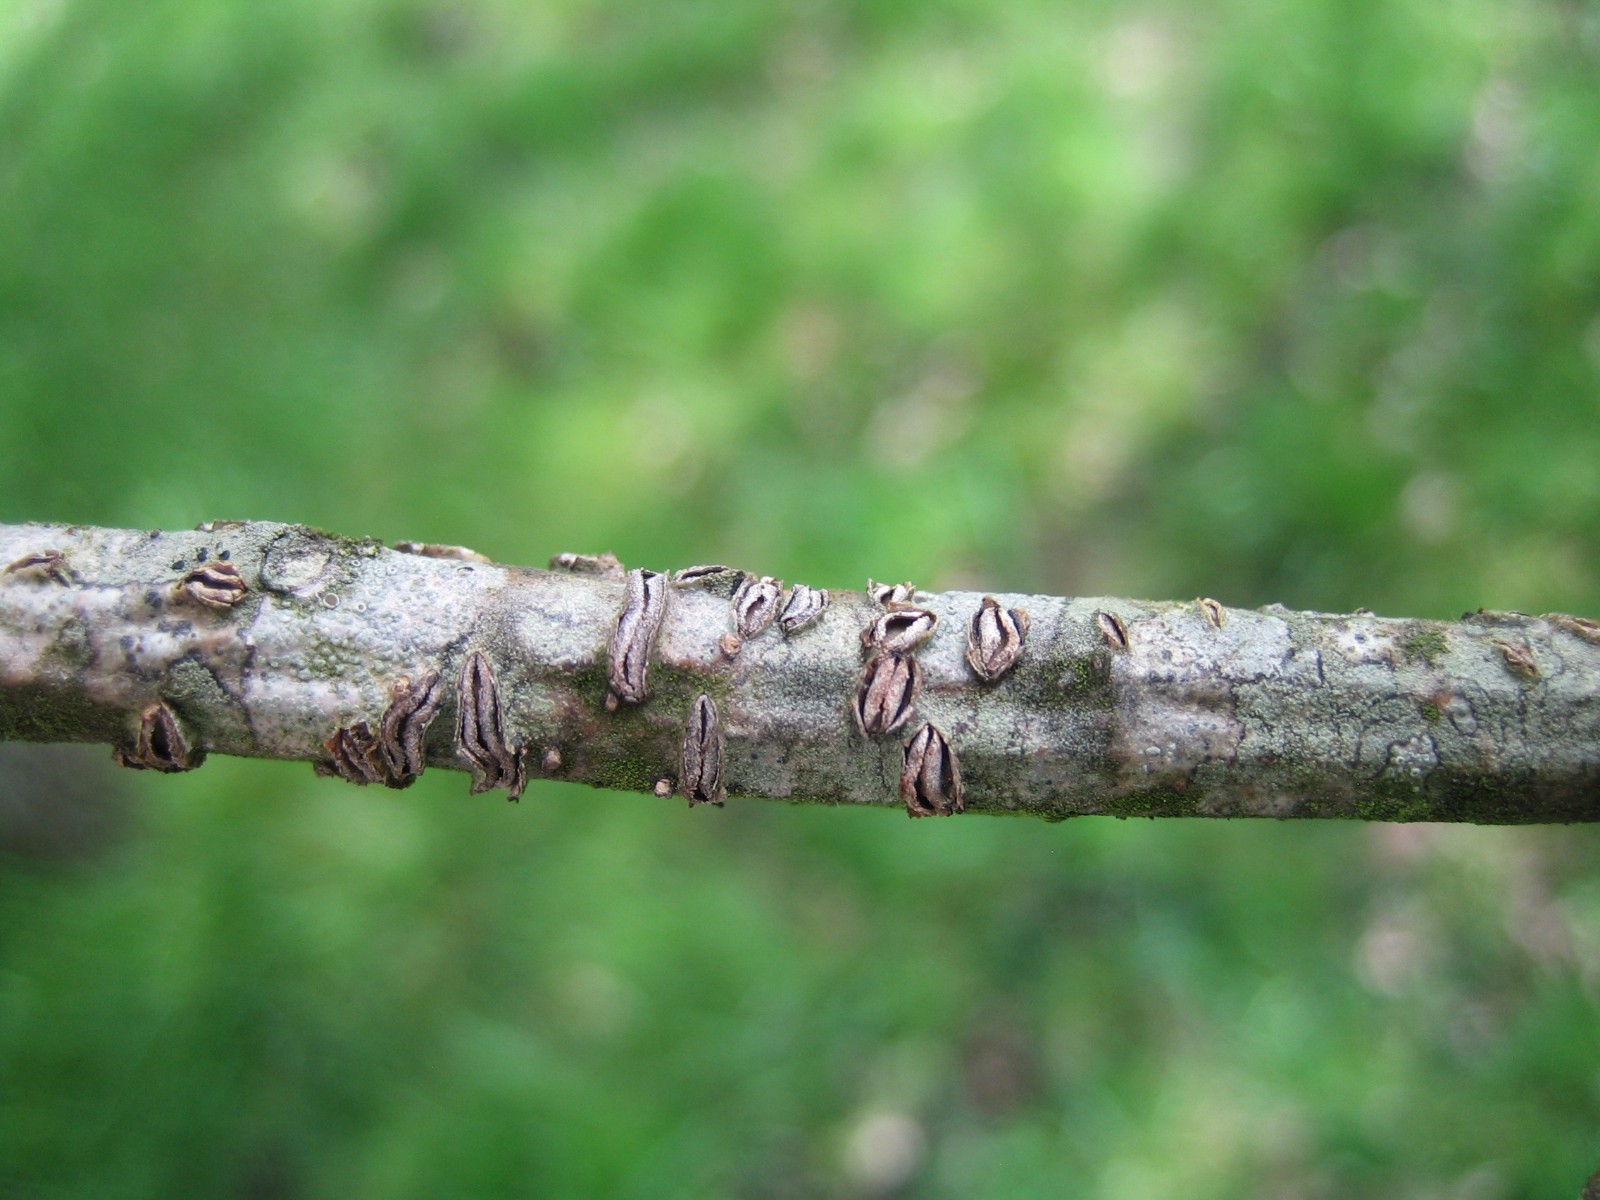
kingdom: Fungi
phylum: Ascomycota
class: Leotiomycetes
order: Rhytismatales
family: Rhytismataceae
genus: Colpoma
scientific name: Colpoma quercinum
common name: ege-sprækkeskive
